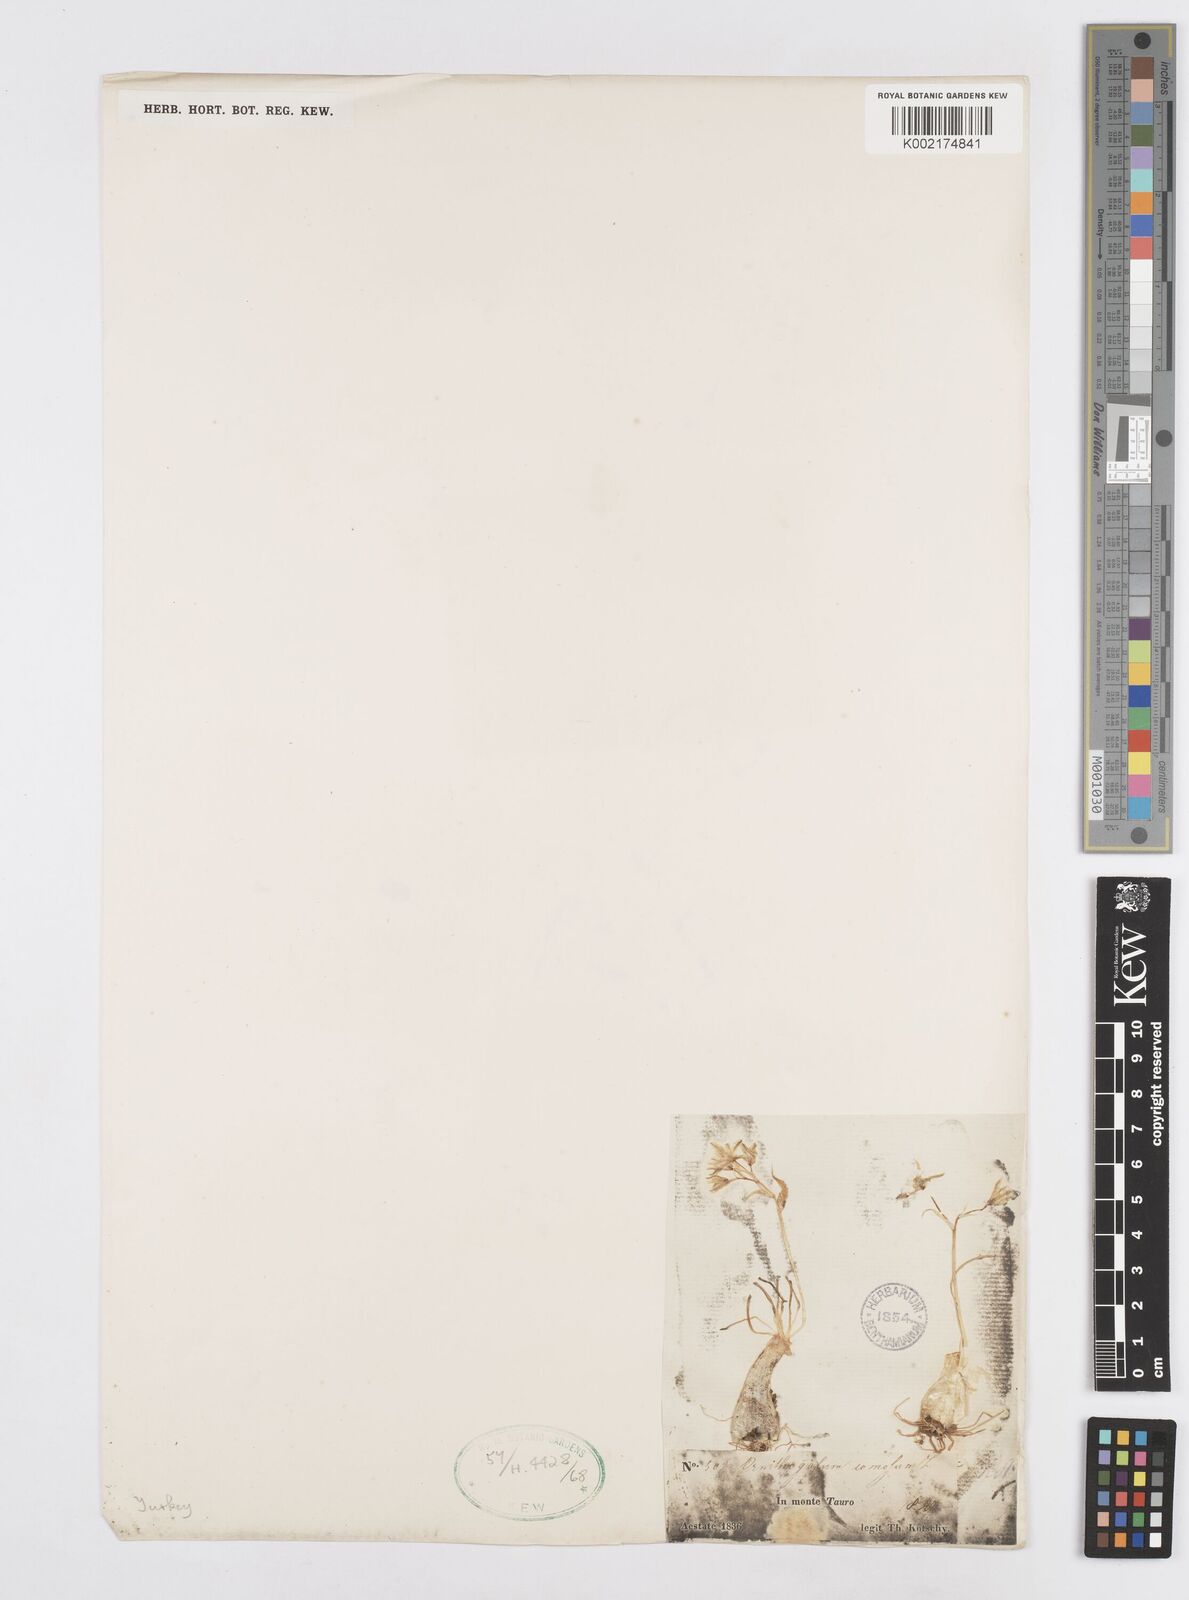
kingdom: Plantae
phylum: Tracheophyta
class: Liliopsida
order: Asparagales
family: Asparagaceae
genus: Ornithogalum
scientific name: Ornithogalum comosum
